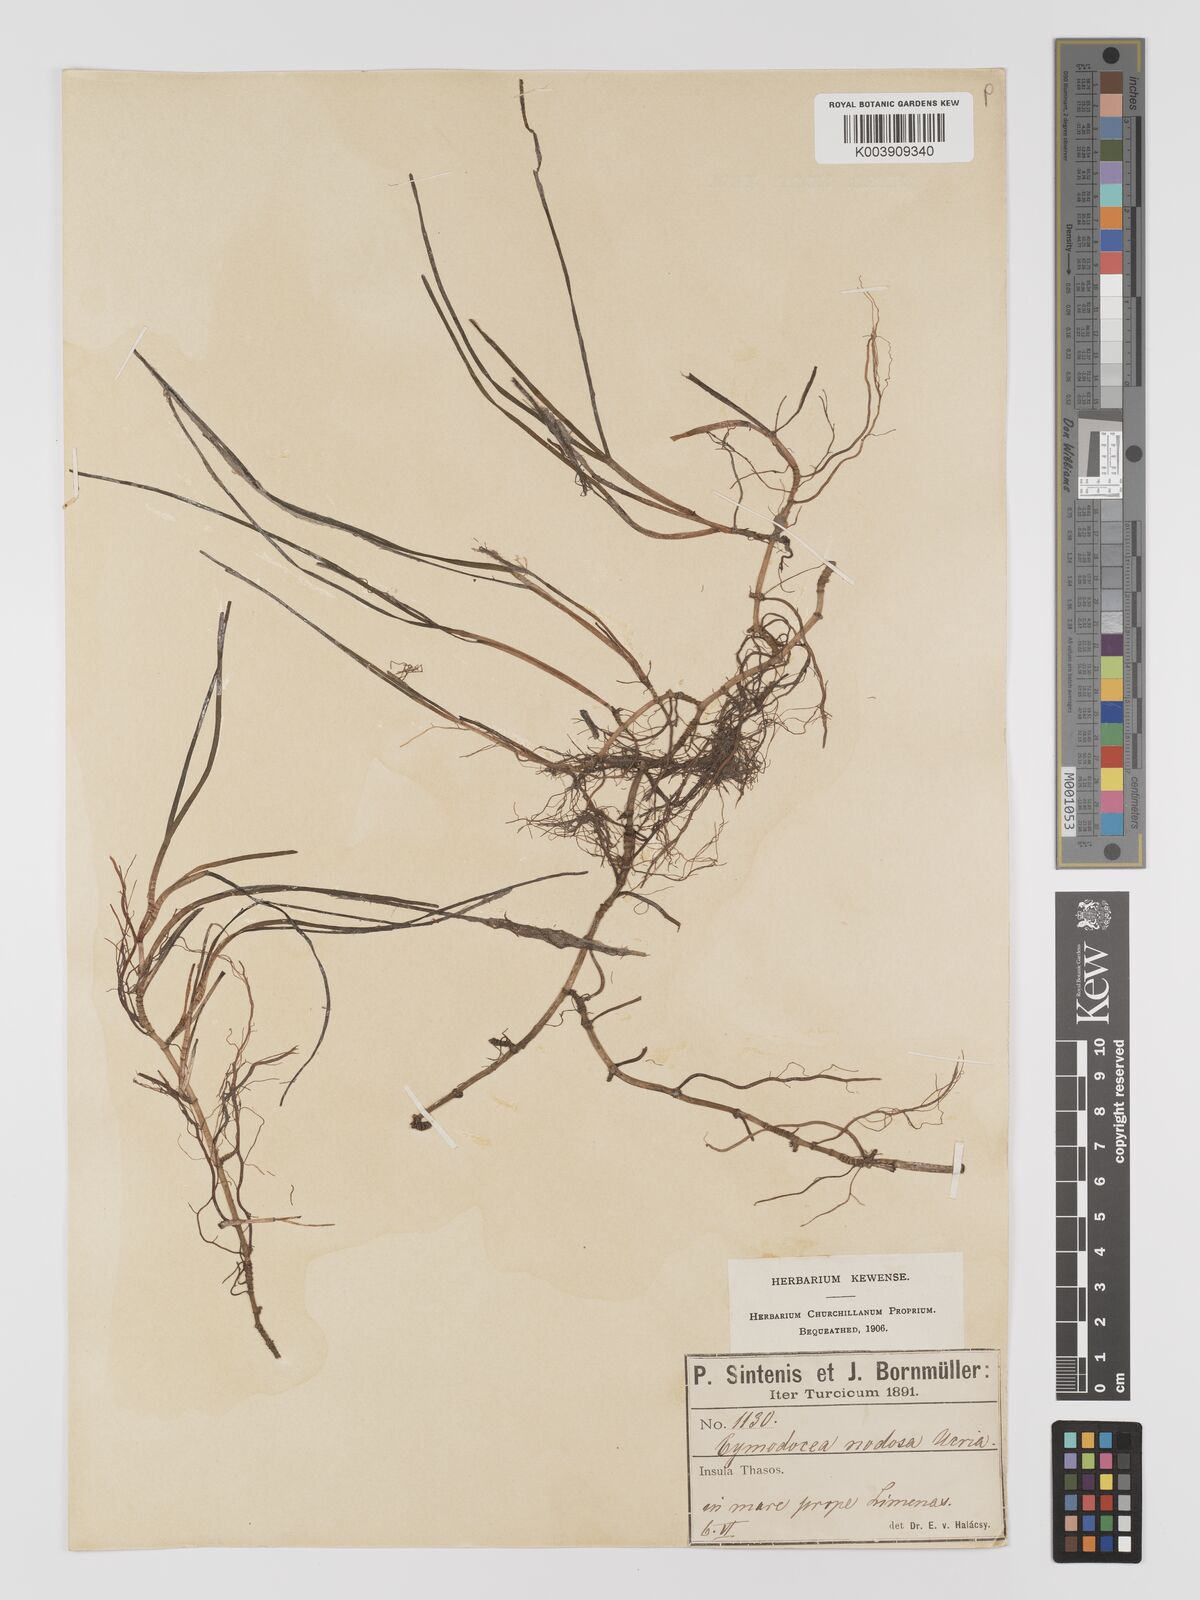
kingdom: Plantae
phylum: Tracheophyta
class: Liliopsida
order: Alismatales
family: Cymodoceaceae
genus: Cymodocea
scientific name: Cymodocea nodosa
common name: Slender seagrass
